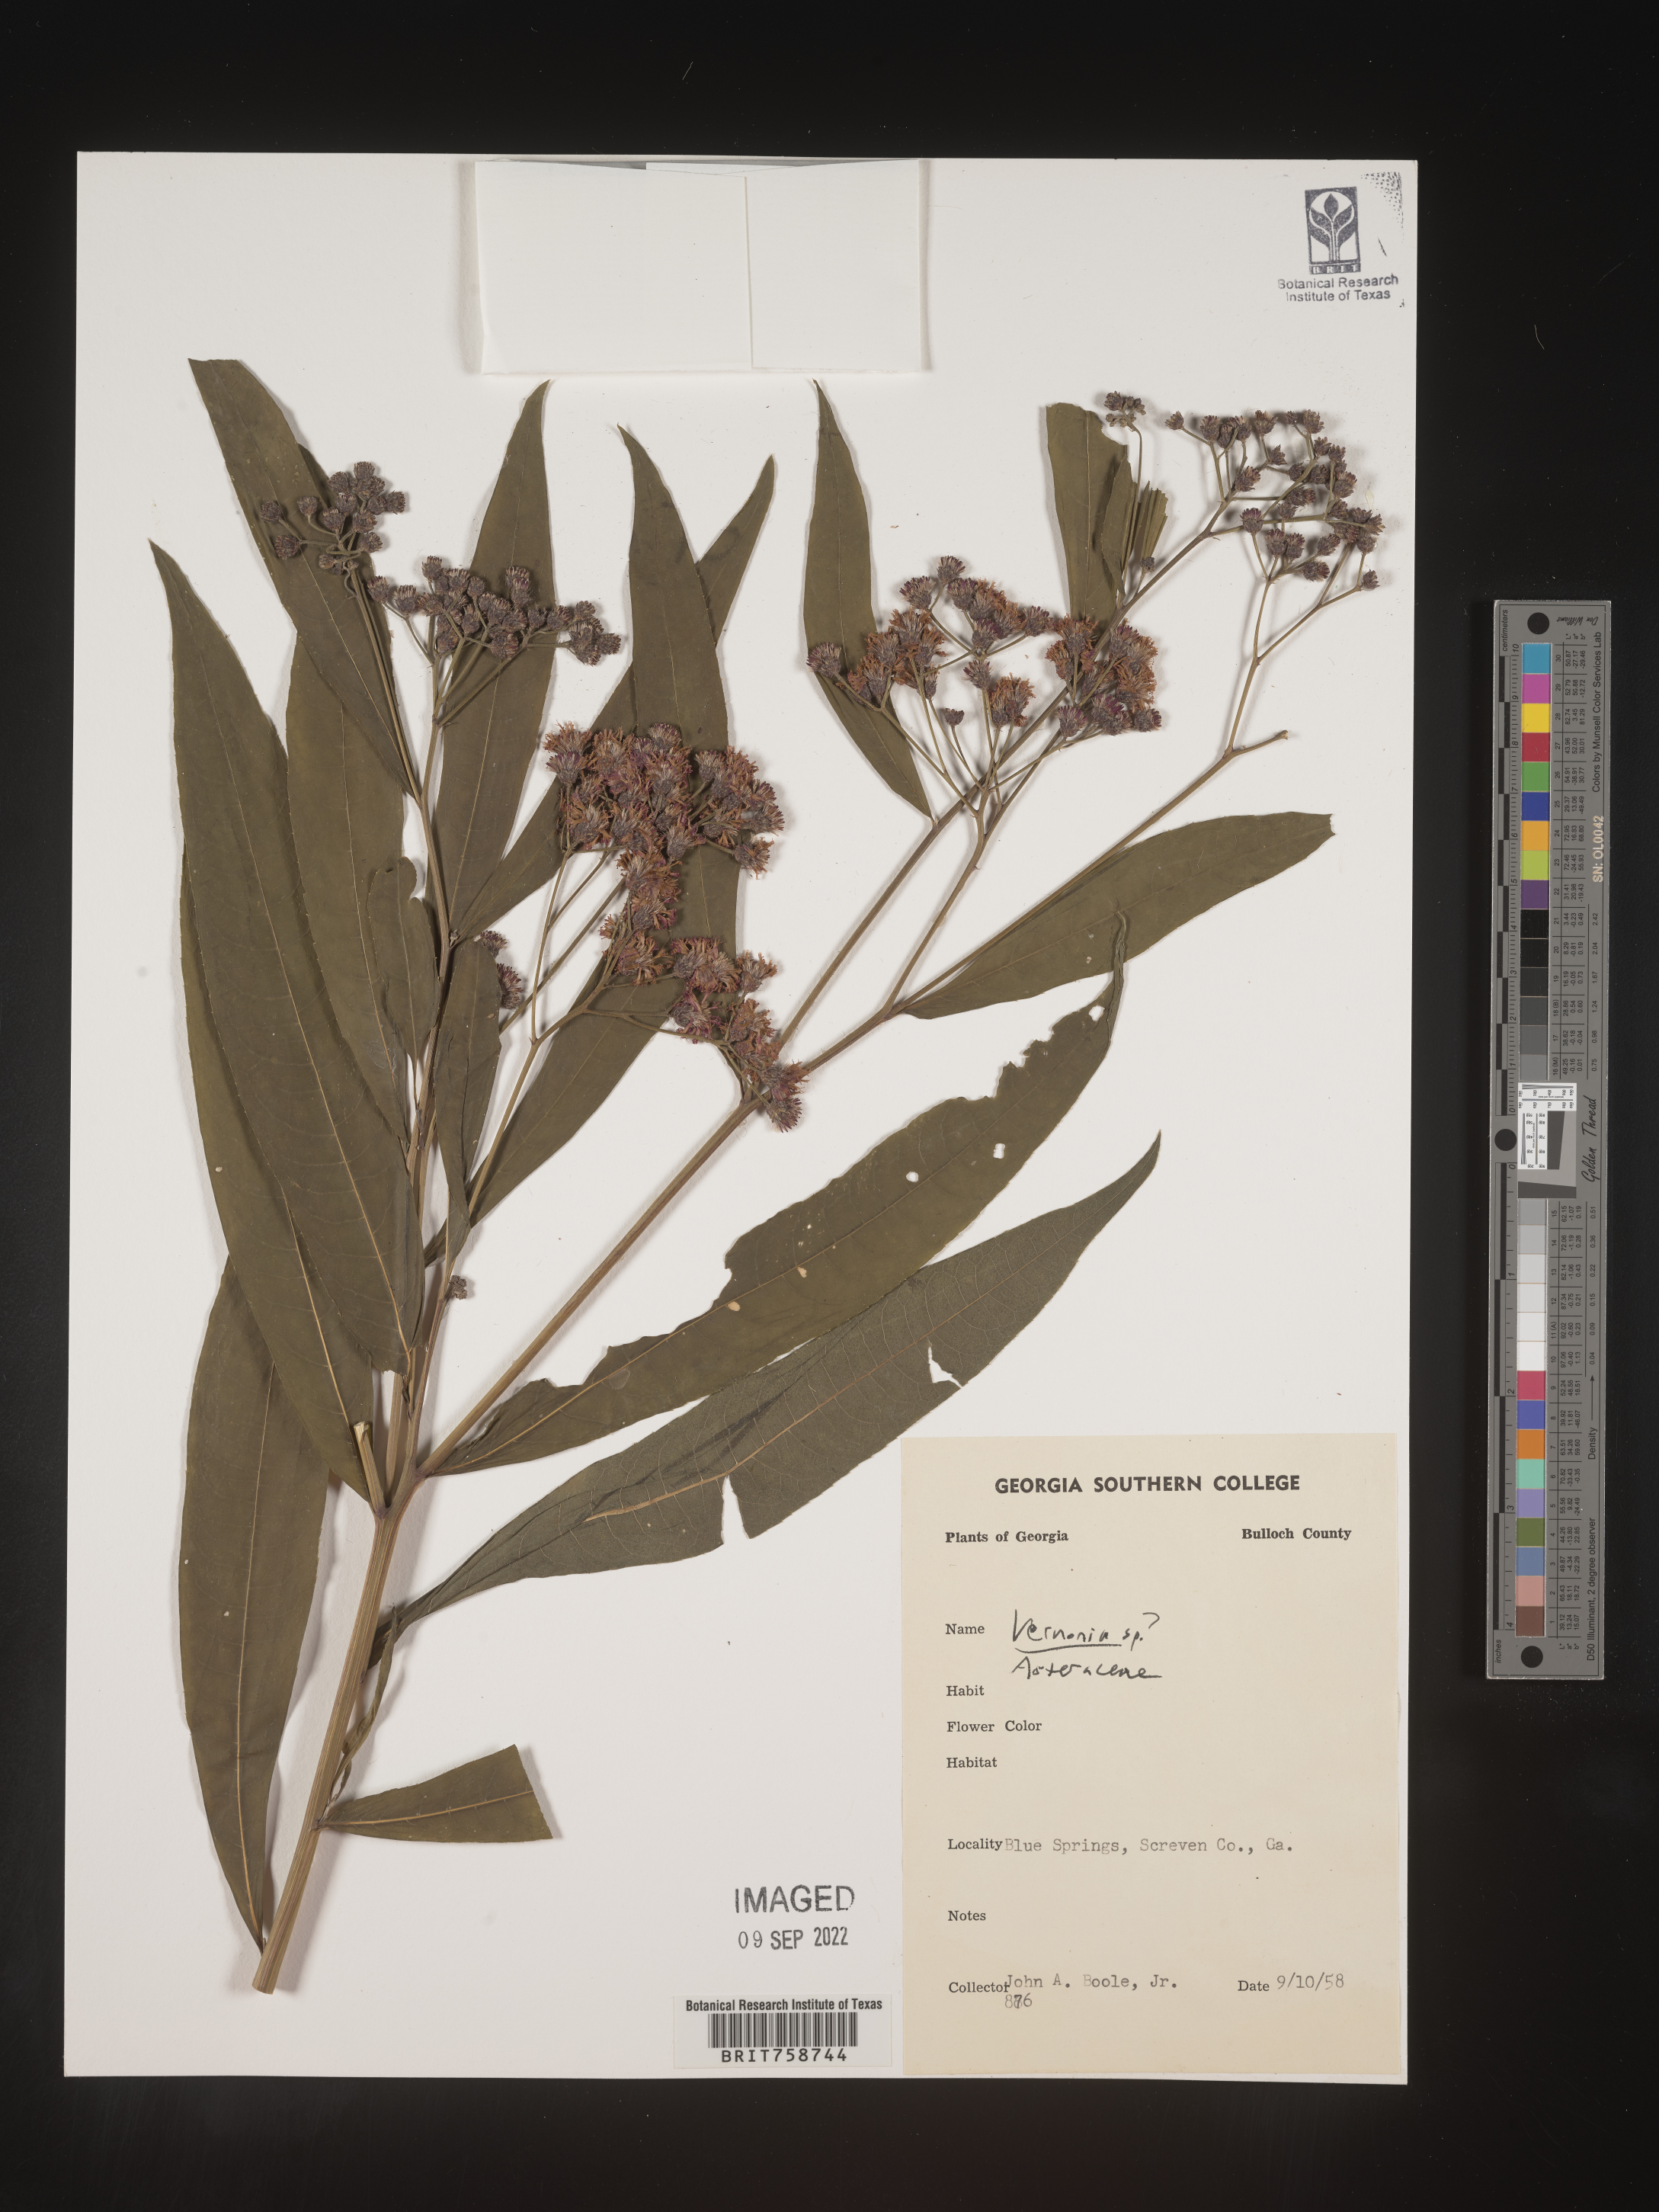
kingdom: Plantae
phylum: Tracheophyta
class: Magnoliopsida
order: Asterales
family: Asteraceae
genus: Vernonia
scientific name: Vernonia
